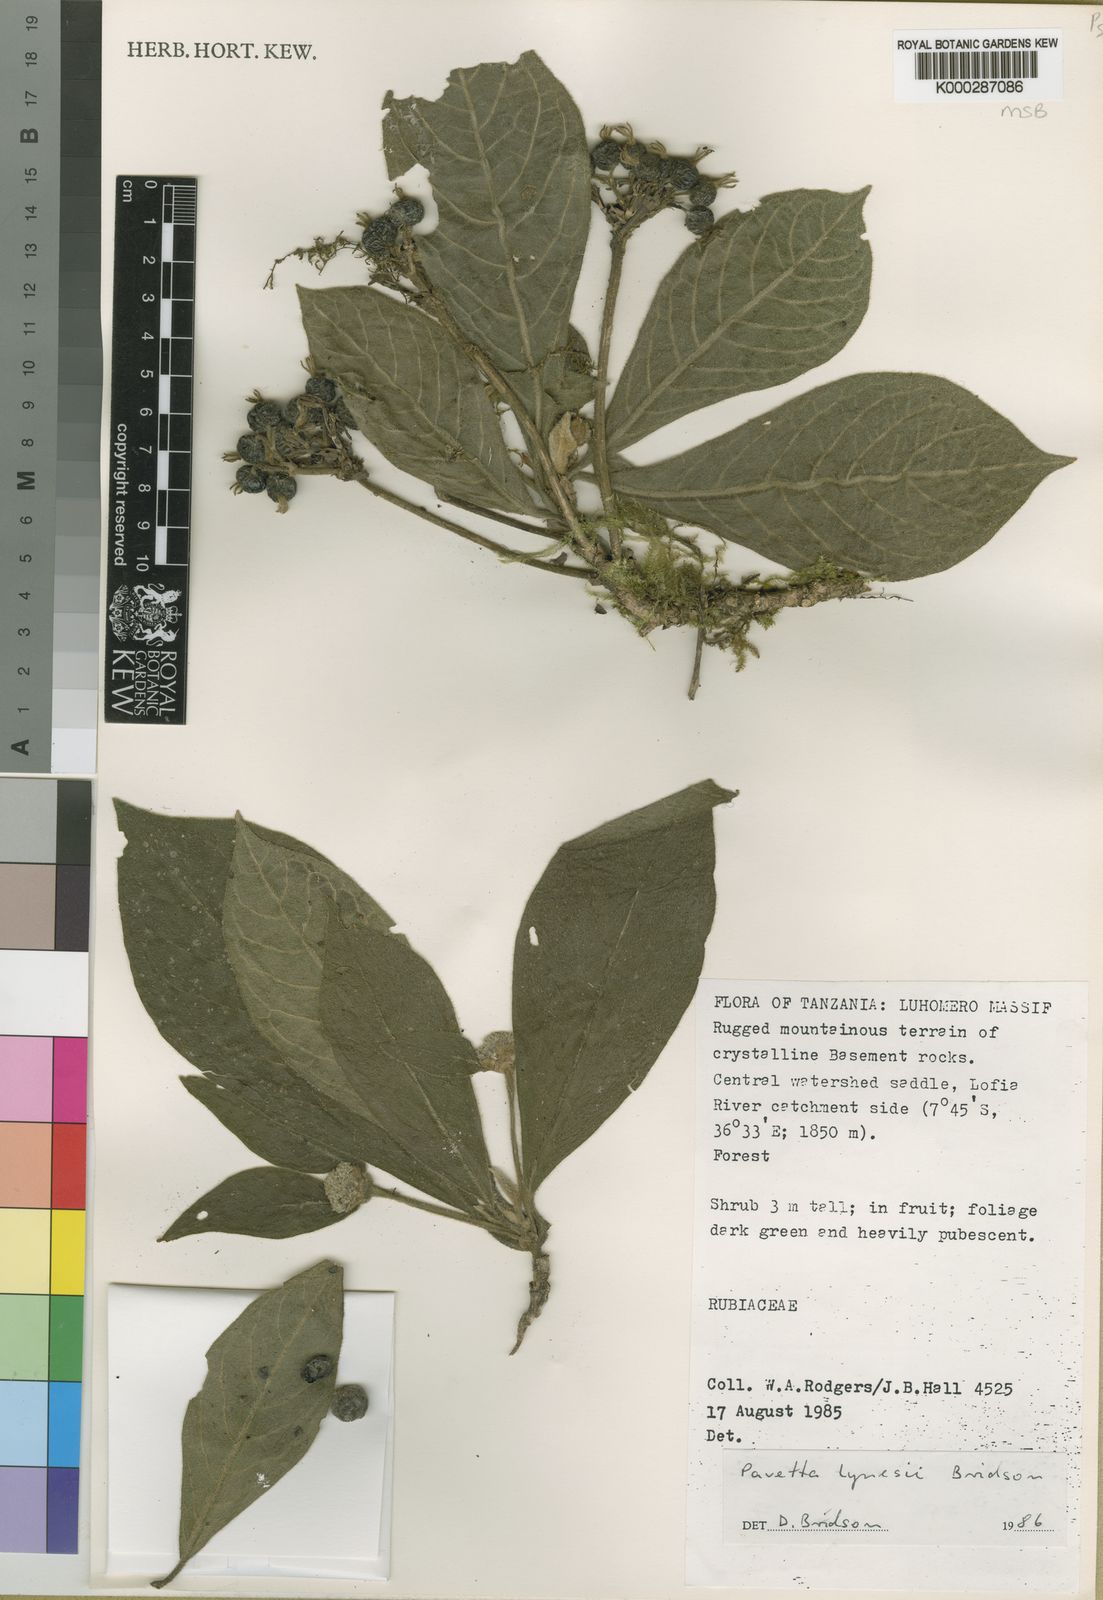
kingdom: Plantae
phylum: Tracheophyta
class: Magnoliopsida
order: Gentianales
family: Rubiaceae
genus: Pavetta
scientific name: Pavetta lynesii
